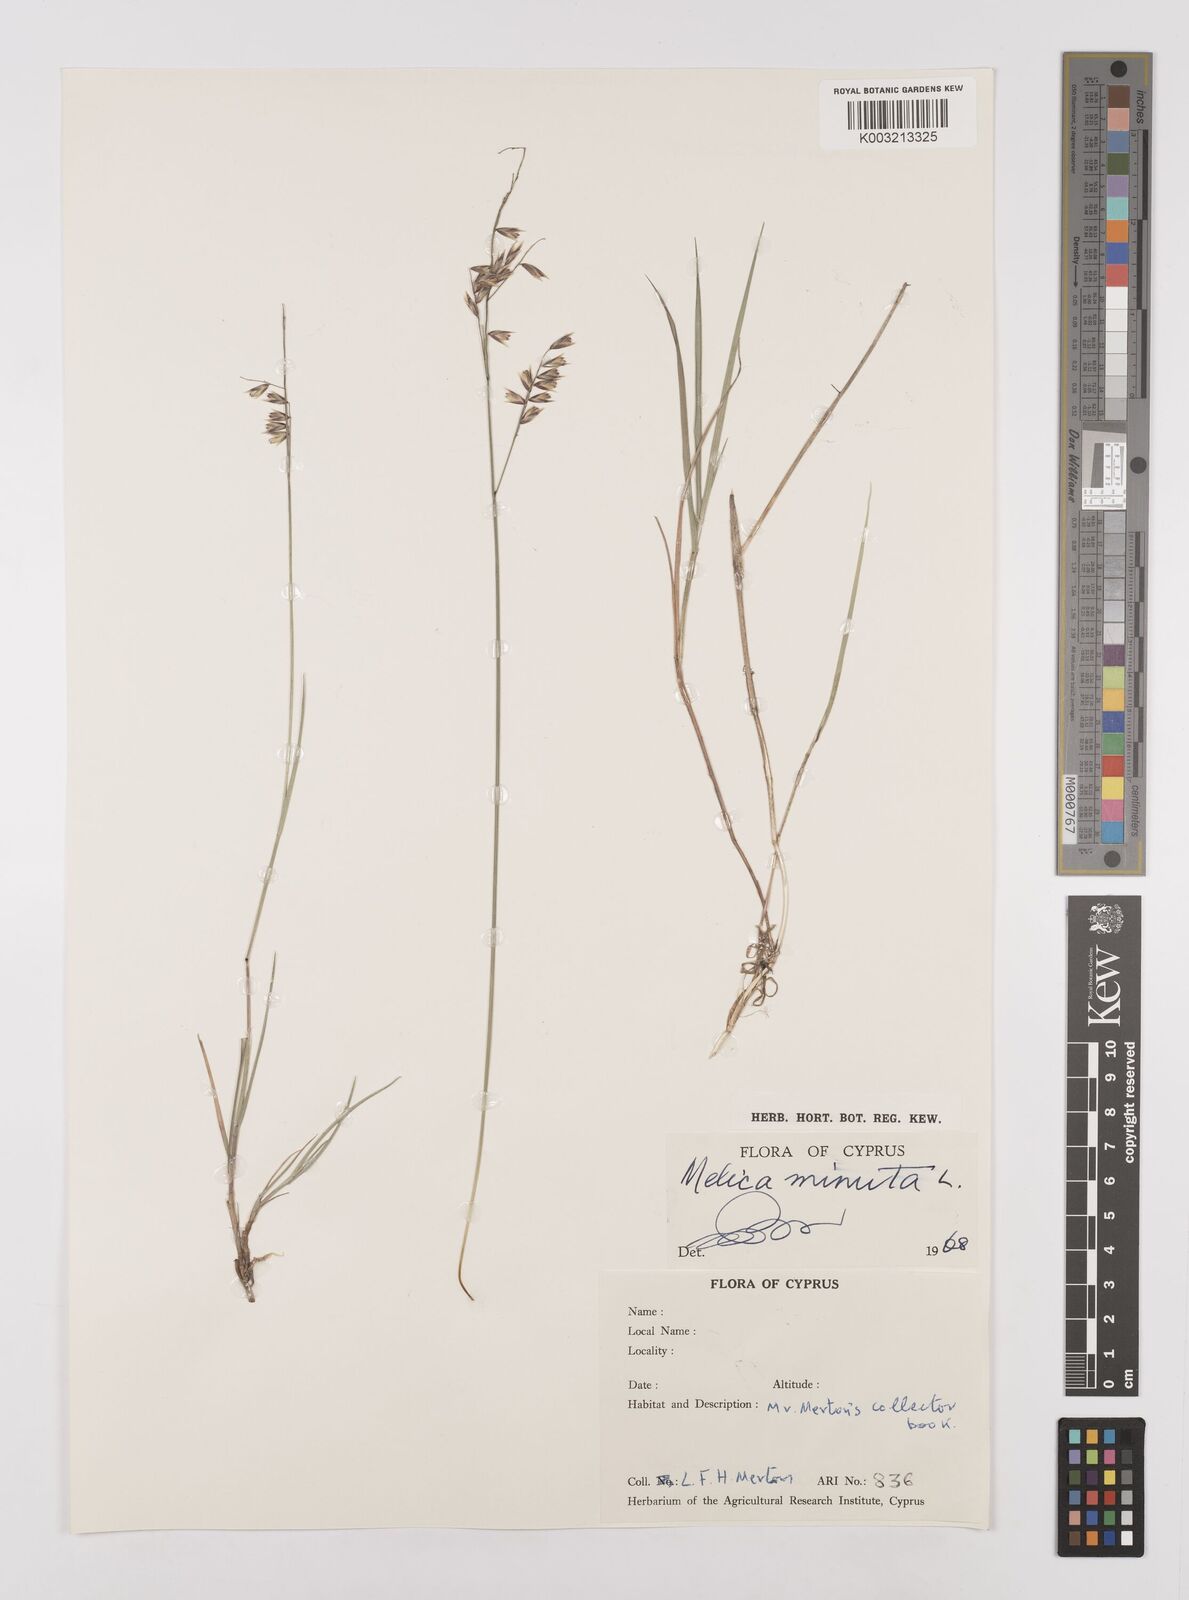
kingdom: Plantae
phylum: Tracheophyta
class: Liliopsida
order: Poales
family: Poaceae
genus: Melica
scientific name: Melica minuta
